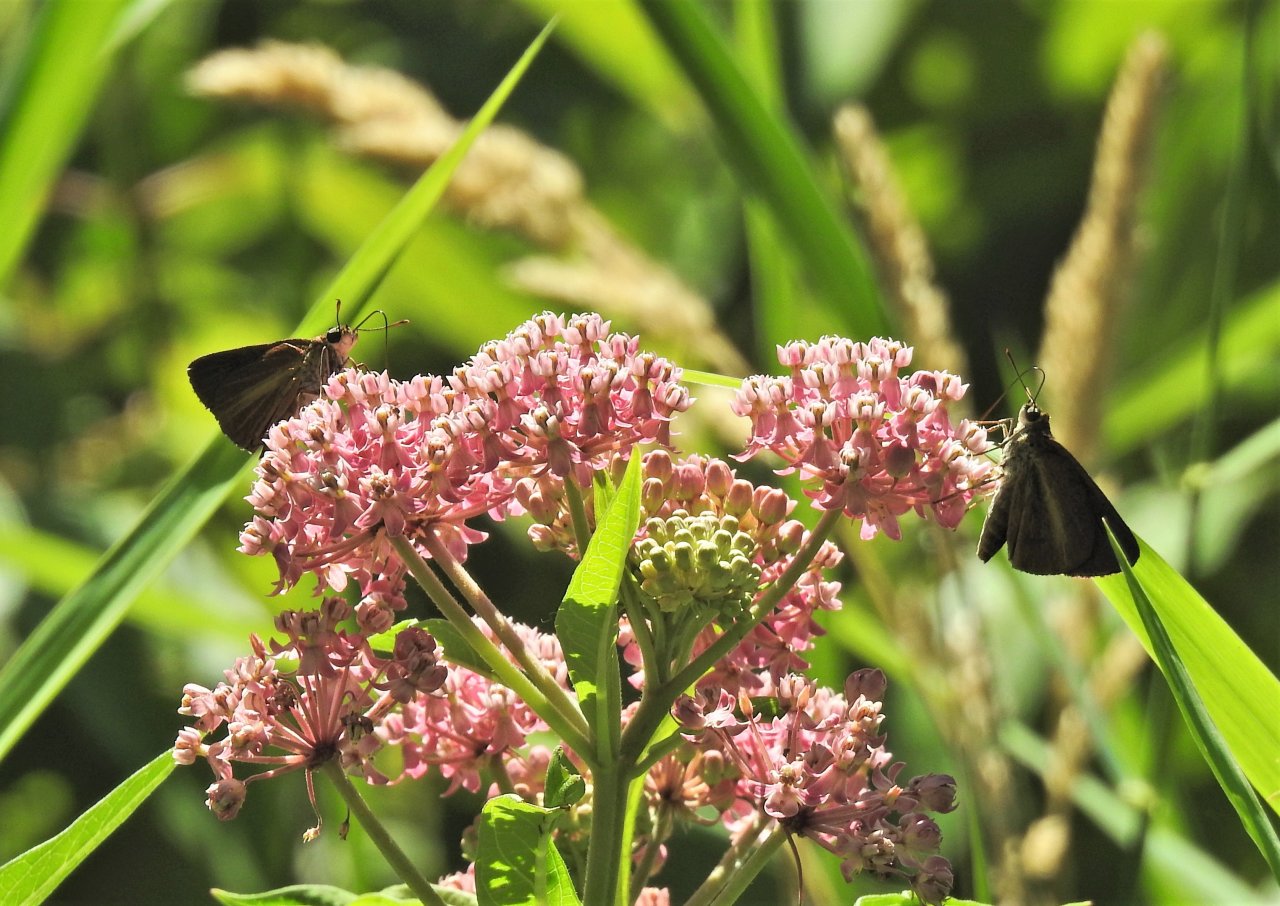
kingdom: Animalia
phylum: Arthropoda
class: Insecta
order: Lepidoptera
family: Hesperiidae
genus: Euphyes
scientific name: Euphyes dukesi
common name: Dukes' Skipper
